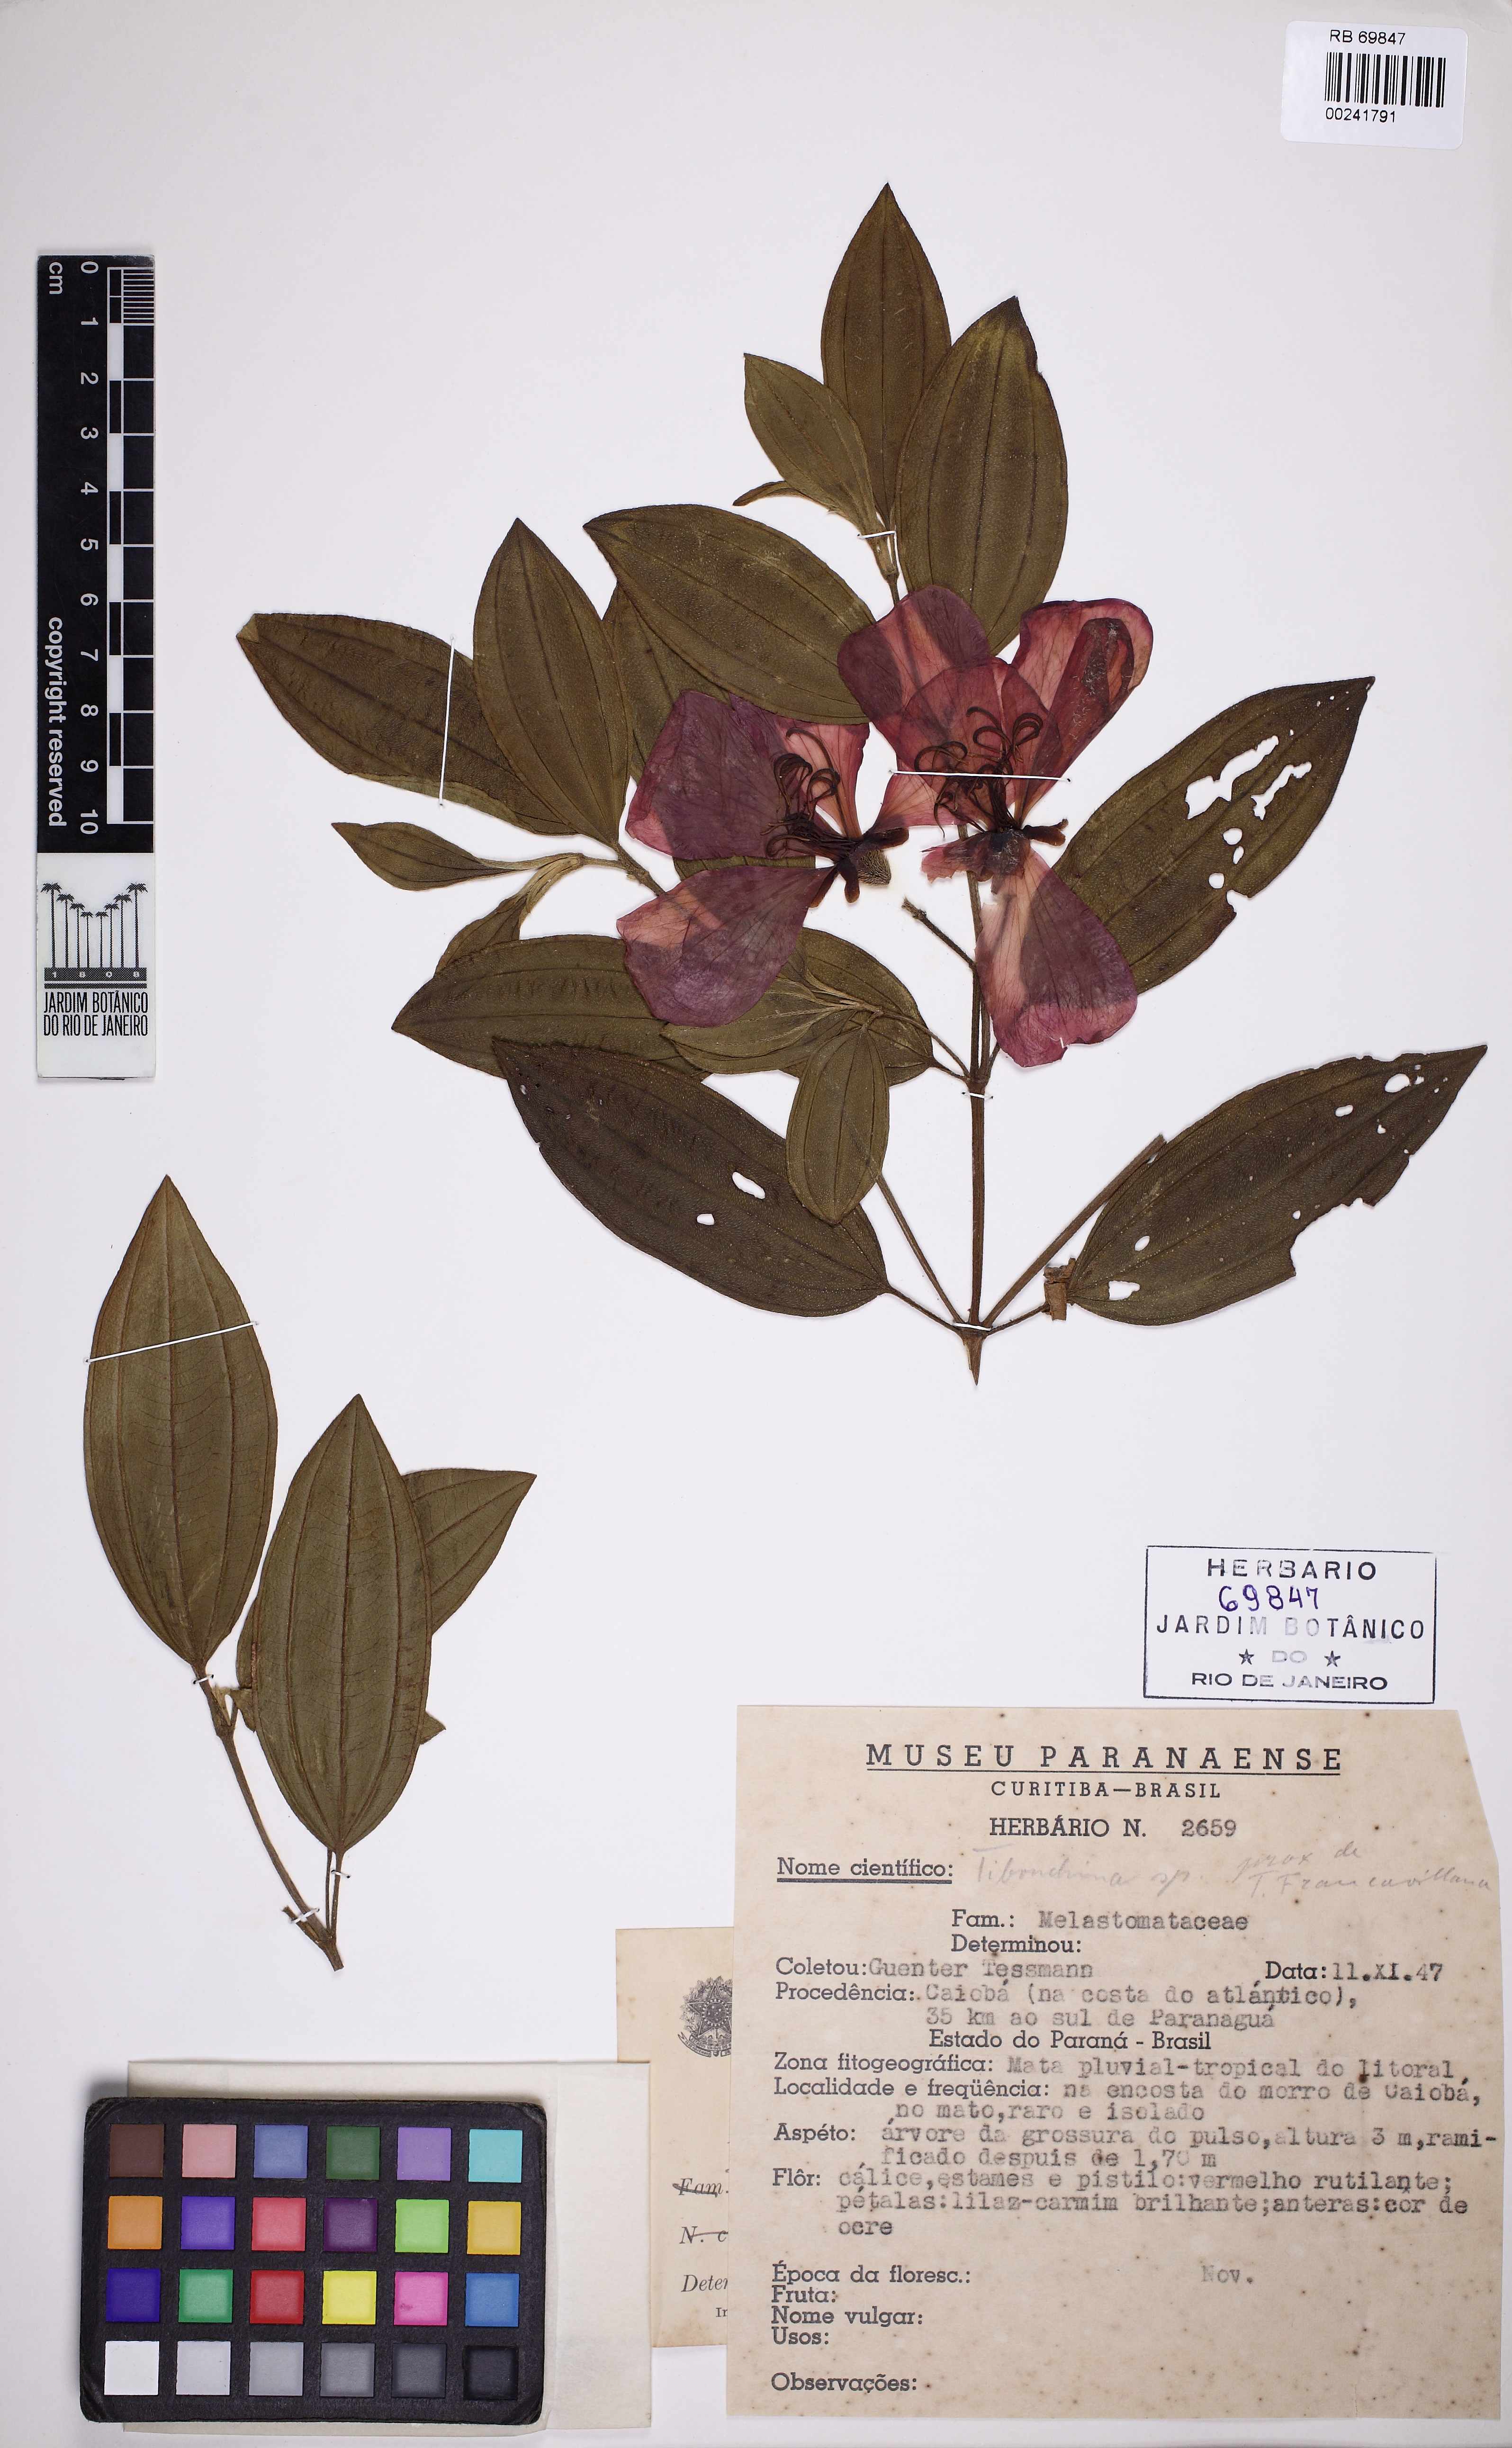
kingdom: Plantae
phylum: Tracheophyta
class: Magnoliopsida
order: Myrtales
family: Melastomataceae
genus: Pleroma
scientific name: Pleroma trichopodum
